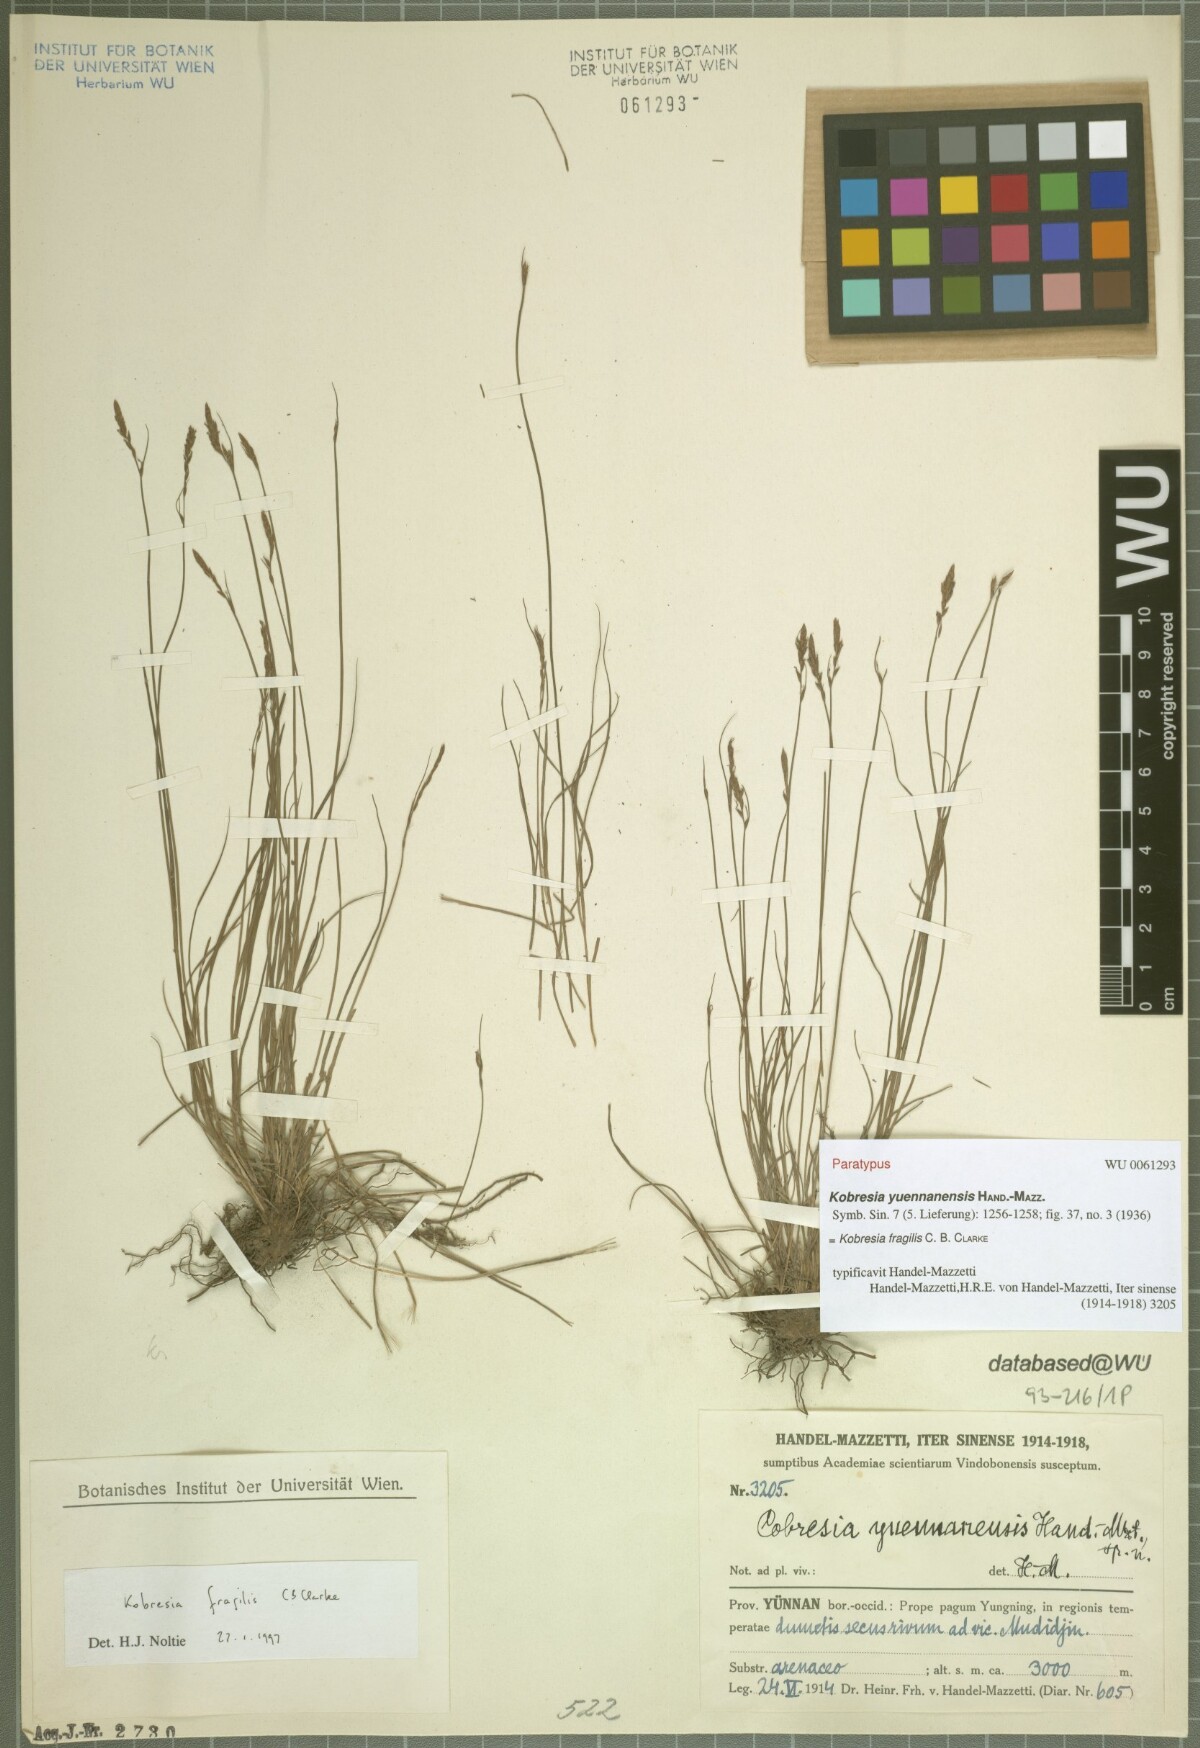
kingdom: Plantae
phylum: Tracheophyta
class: Liliopsida
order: Poales
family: Cyperaceae
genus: Carex
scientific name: Carex bonatiana
